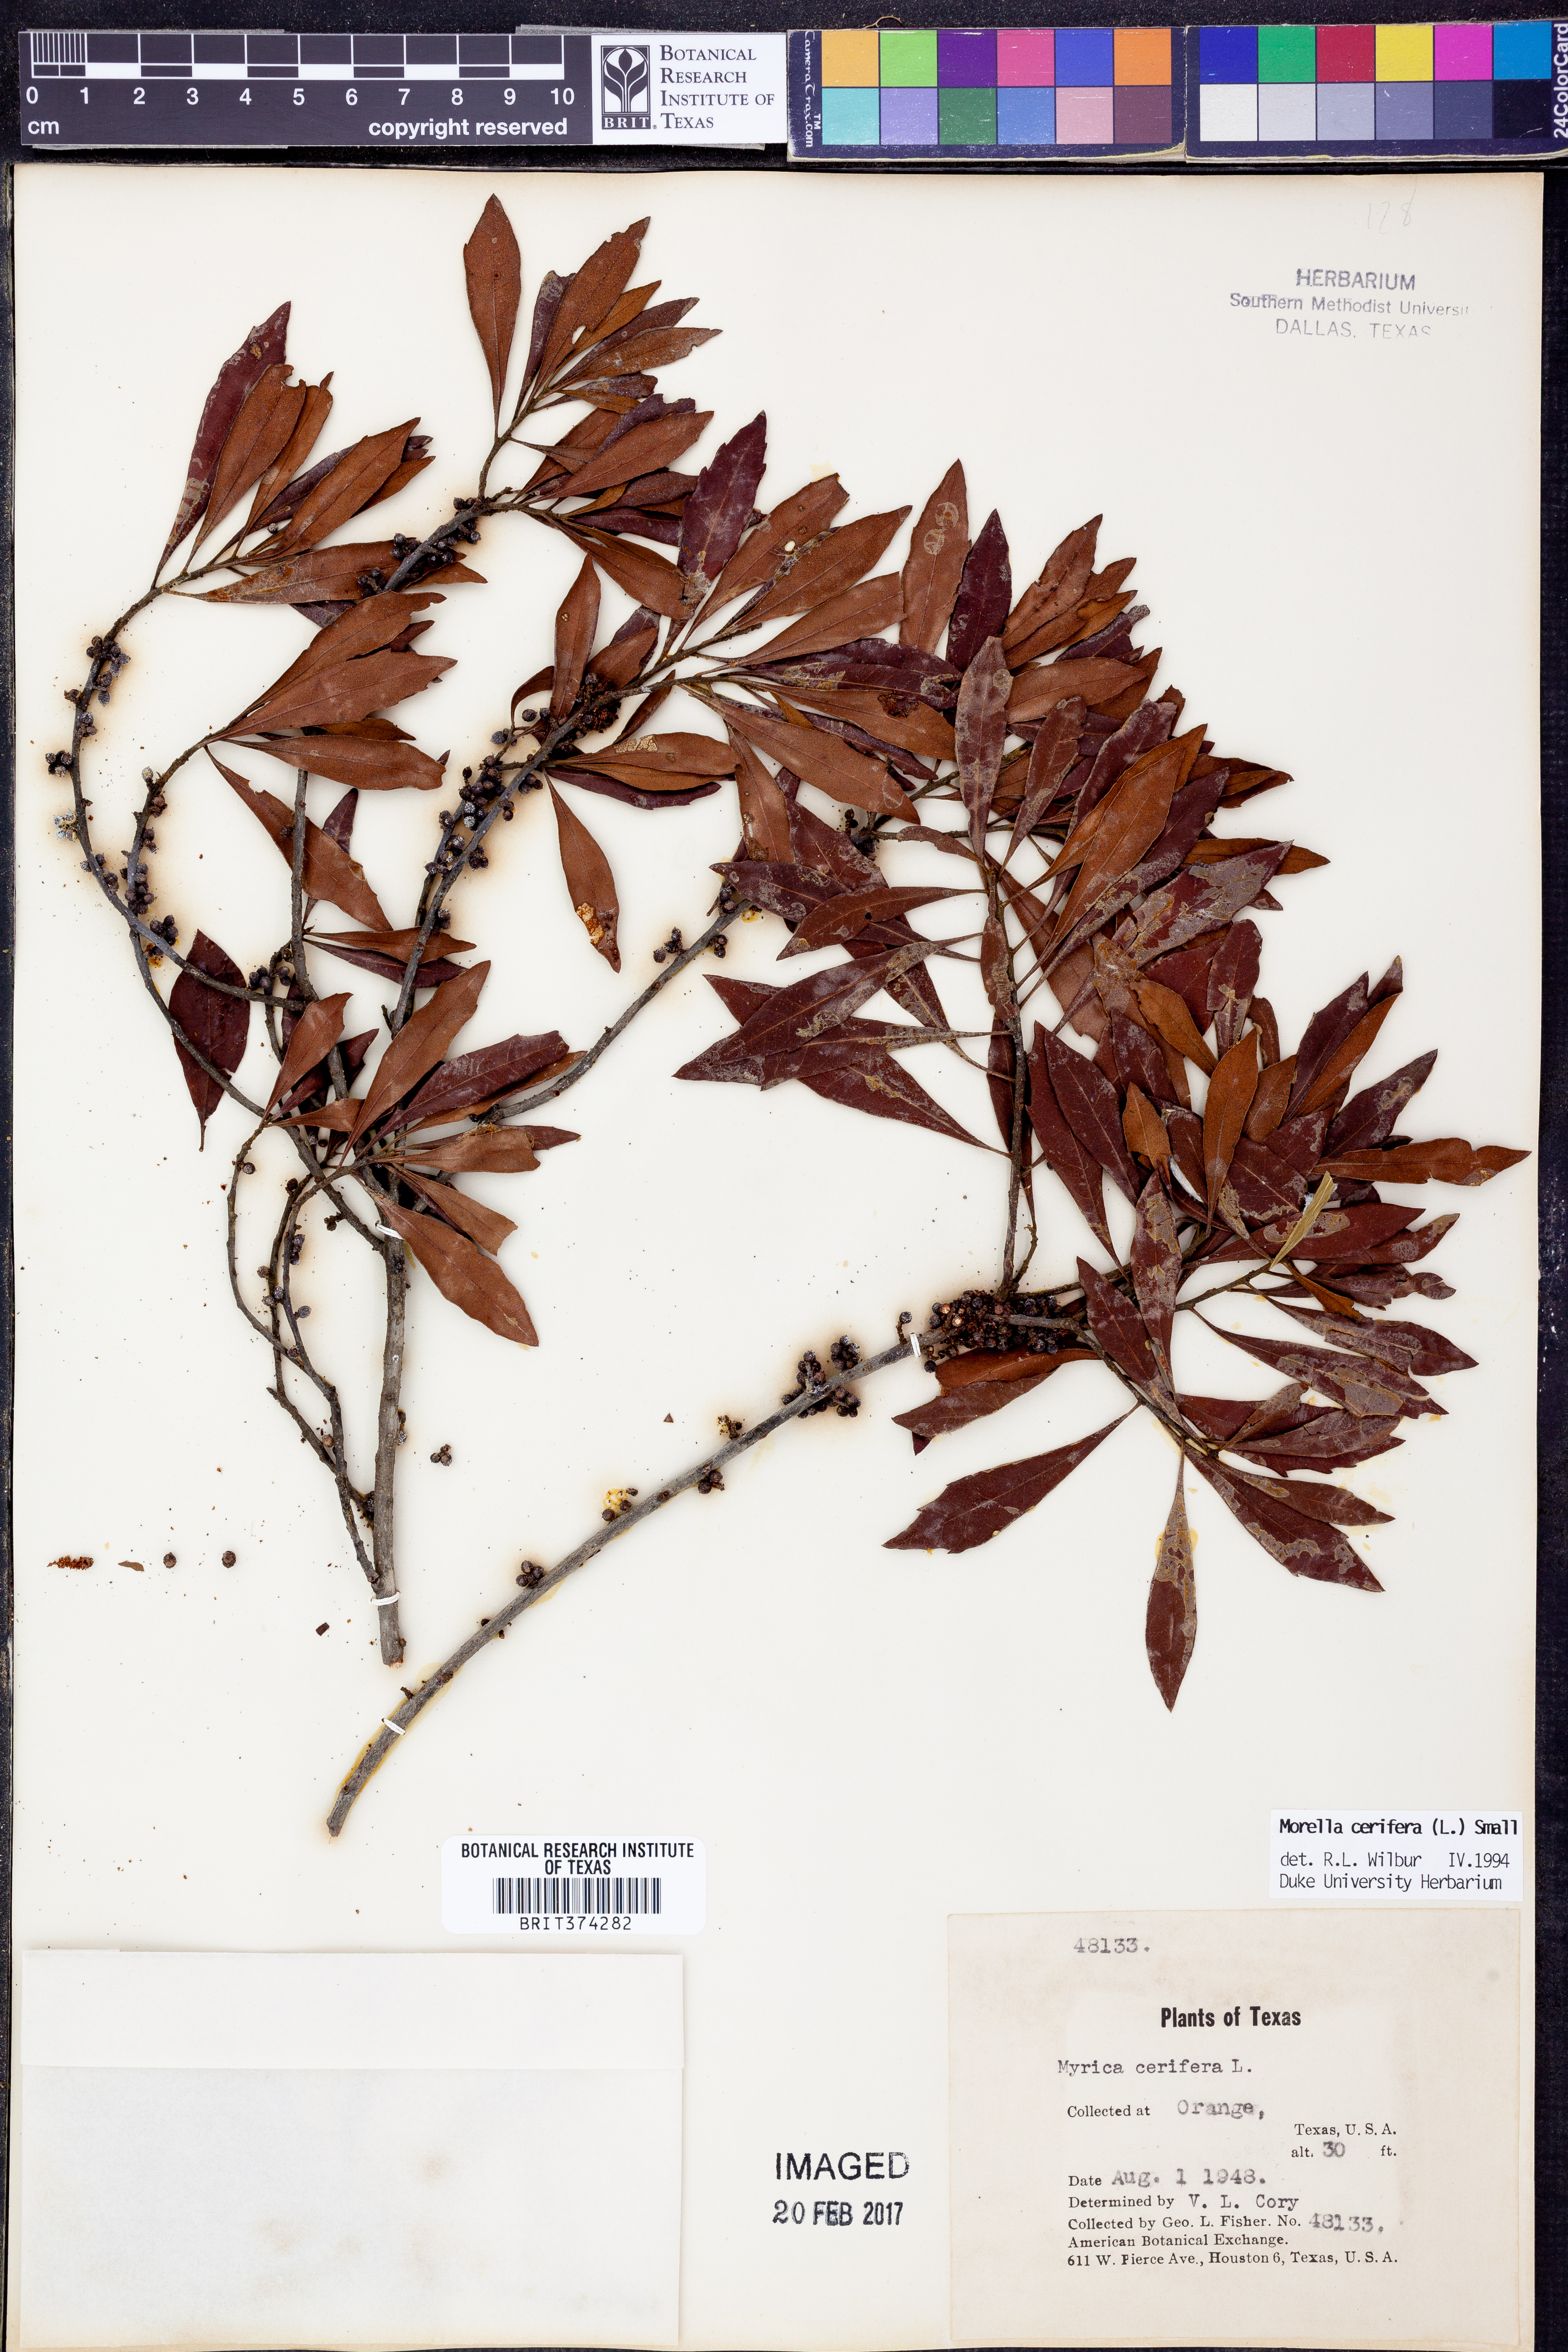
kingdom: Plantae
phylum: Tracheophyta
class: Magnoliopsida
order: Fagales
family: Myricaceae
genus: Morella
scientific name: Morella cerifera
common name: Wax myrtle
